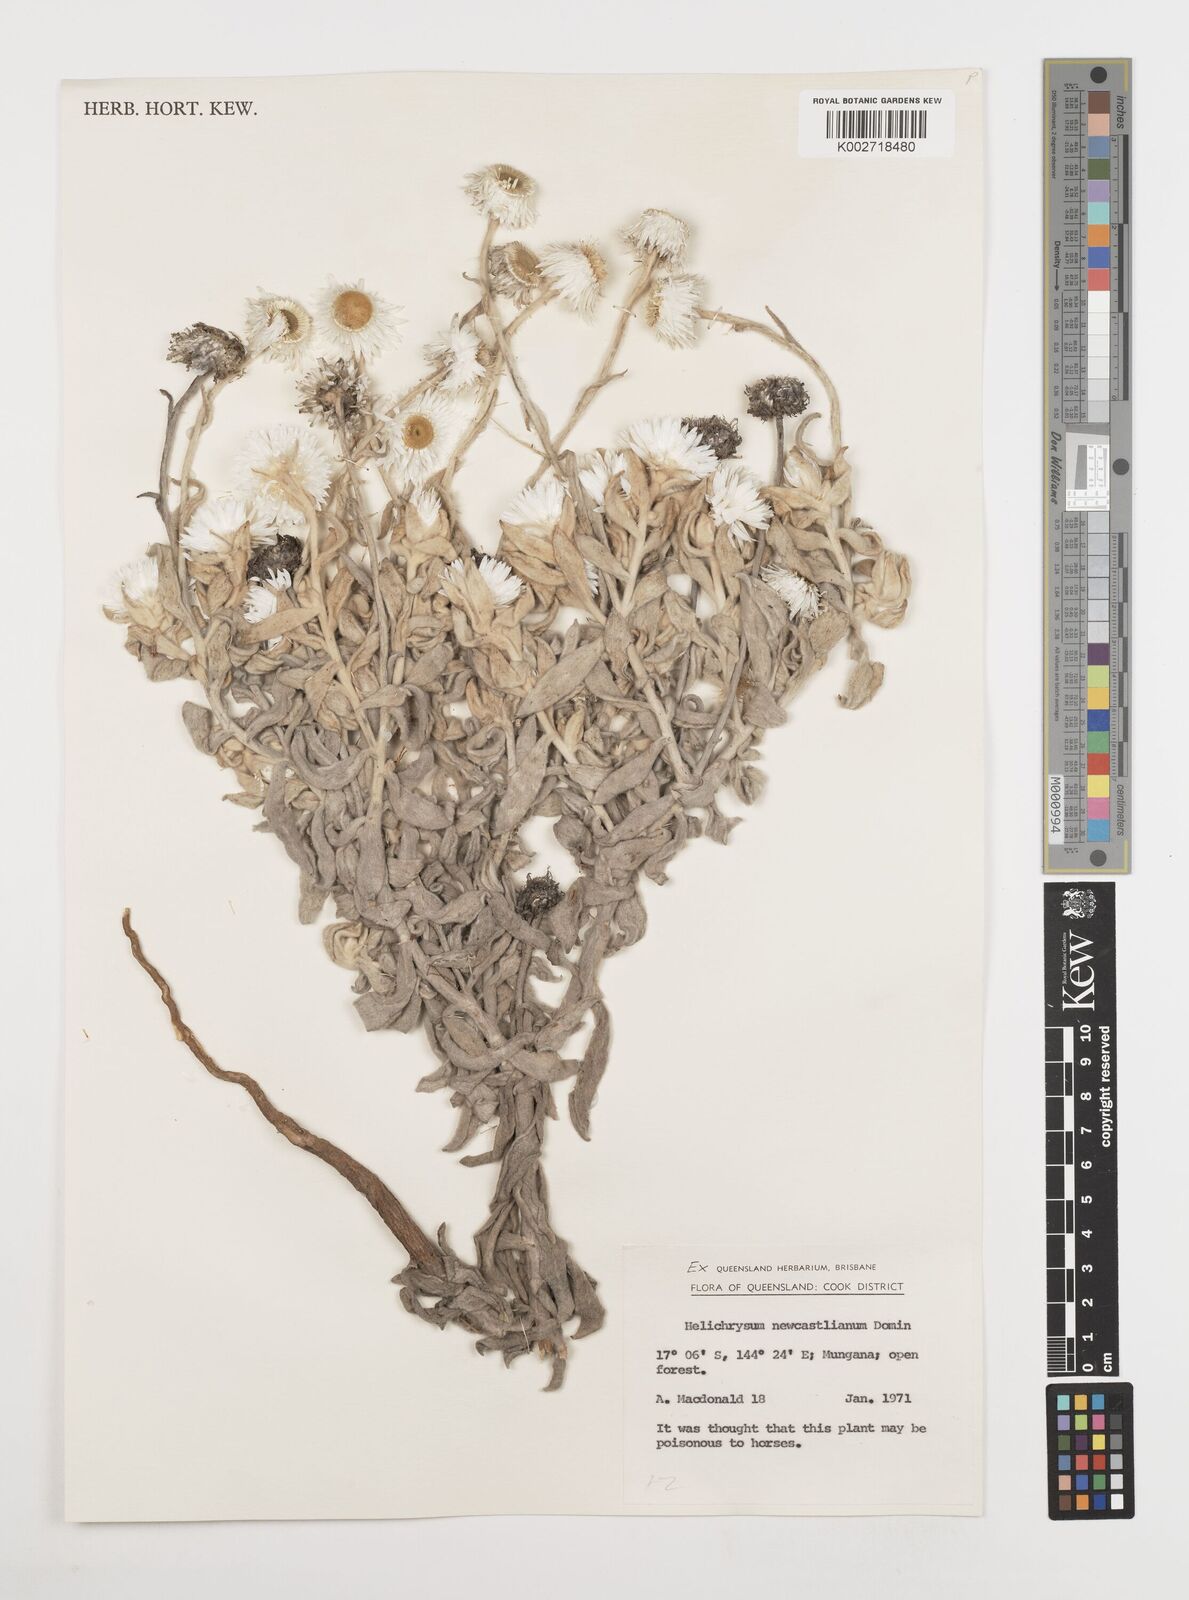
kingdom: Plantae
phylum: Tracheophyta
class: Magnoliopsida
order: Asterales
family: Asteraceae
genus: Coronidium
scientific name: Coronidium newcastlianum
